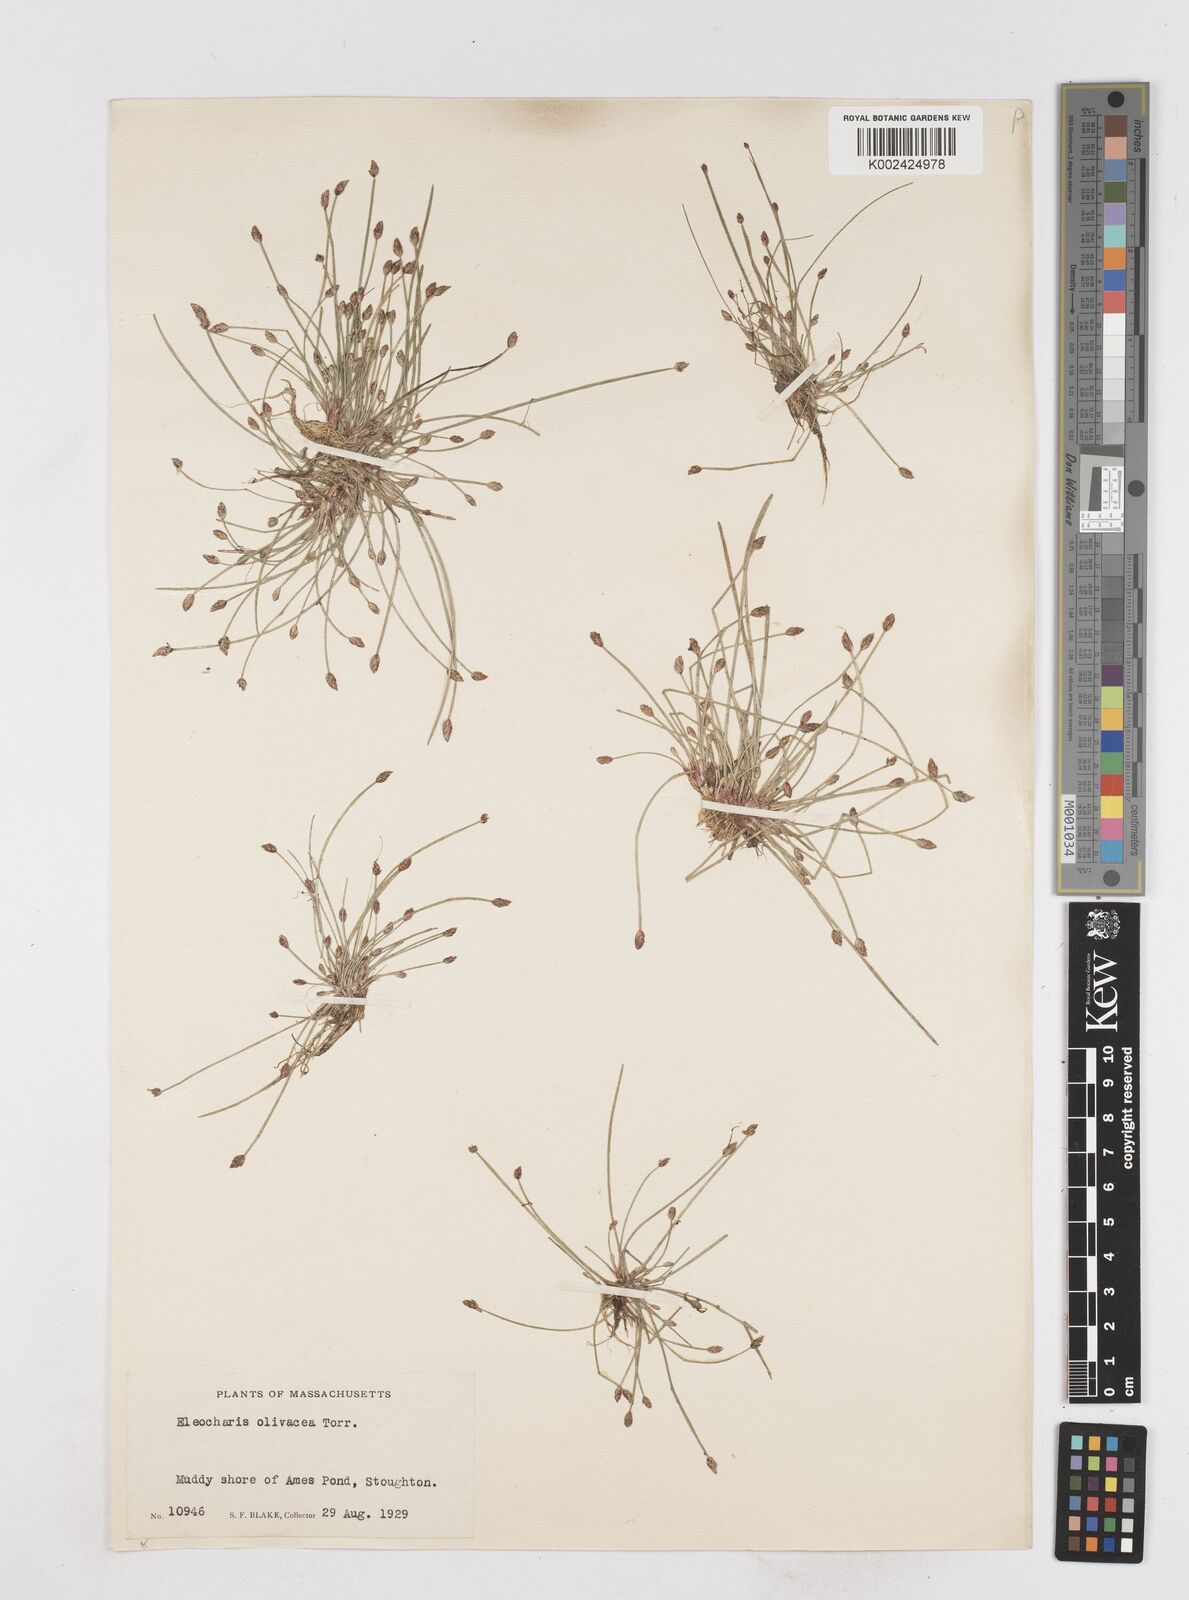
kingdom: Plantae
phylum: Tracheophyta
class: Liliopsida
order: Poales
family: Cyperaceae
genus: Eleocharis
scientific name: Eleocharis flavescens
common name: Yellow spikerush
